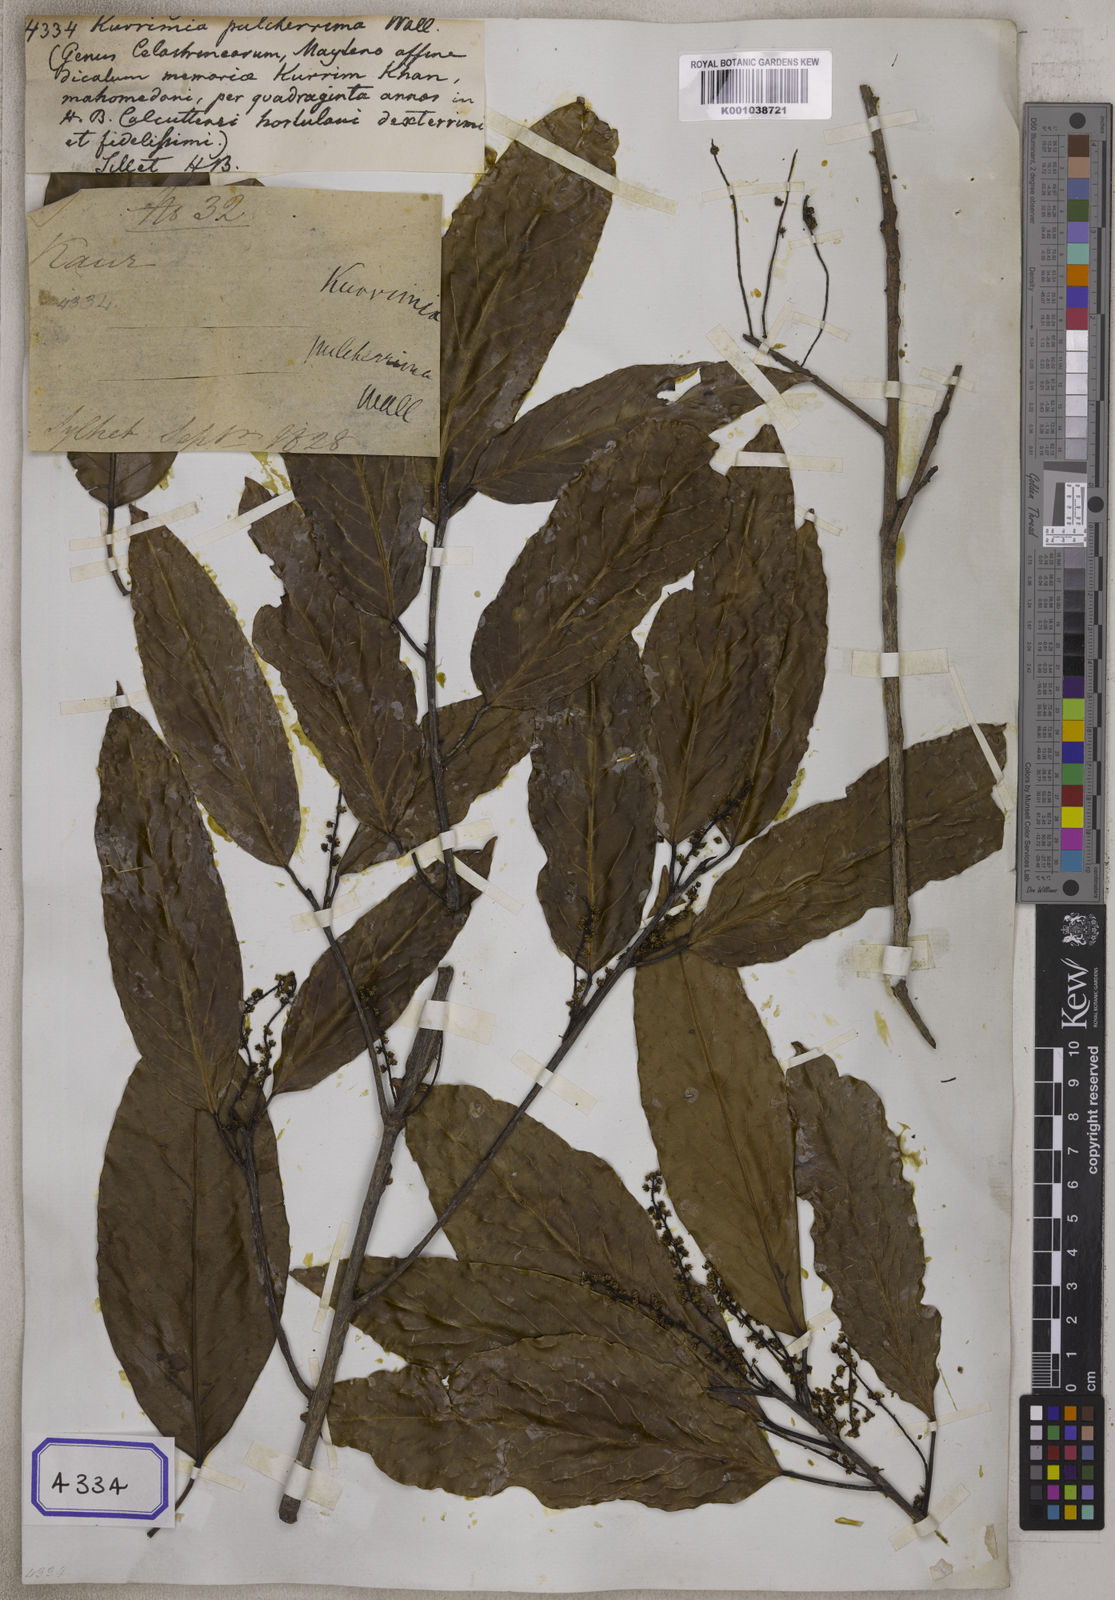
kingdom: Plantae
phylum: Tracheophyta
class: Magnoliopsida
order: Escalloniales
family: Escalloniaceae
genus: Kurrimia
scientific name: Kurrimia
